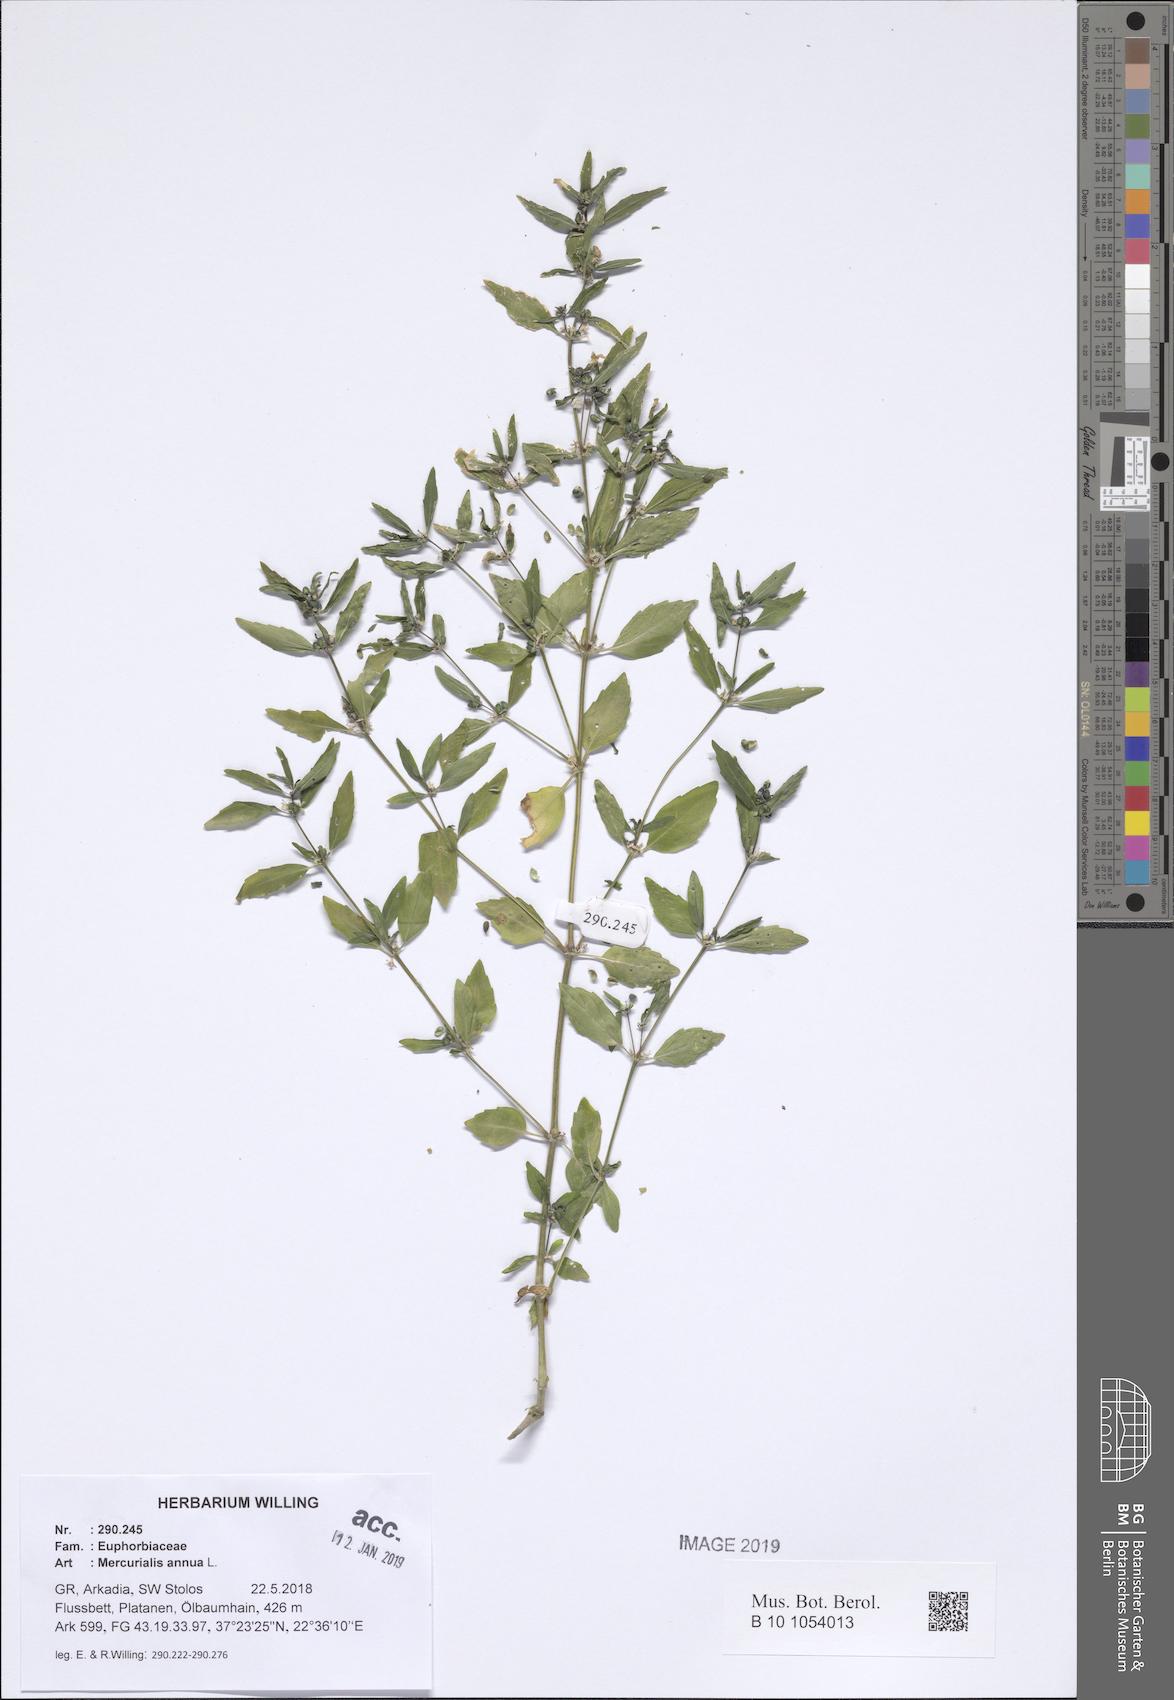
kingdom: Plantae
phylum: Tracheophyta
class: Magnoliopsida
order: Malpighiales
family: Euphorbiaceae
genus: Mercurialis
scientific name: Mercurialis annua
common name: Annual mercury
